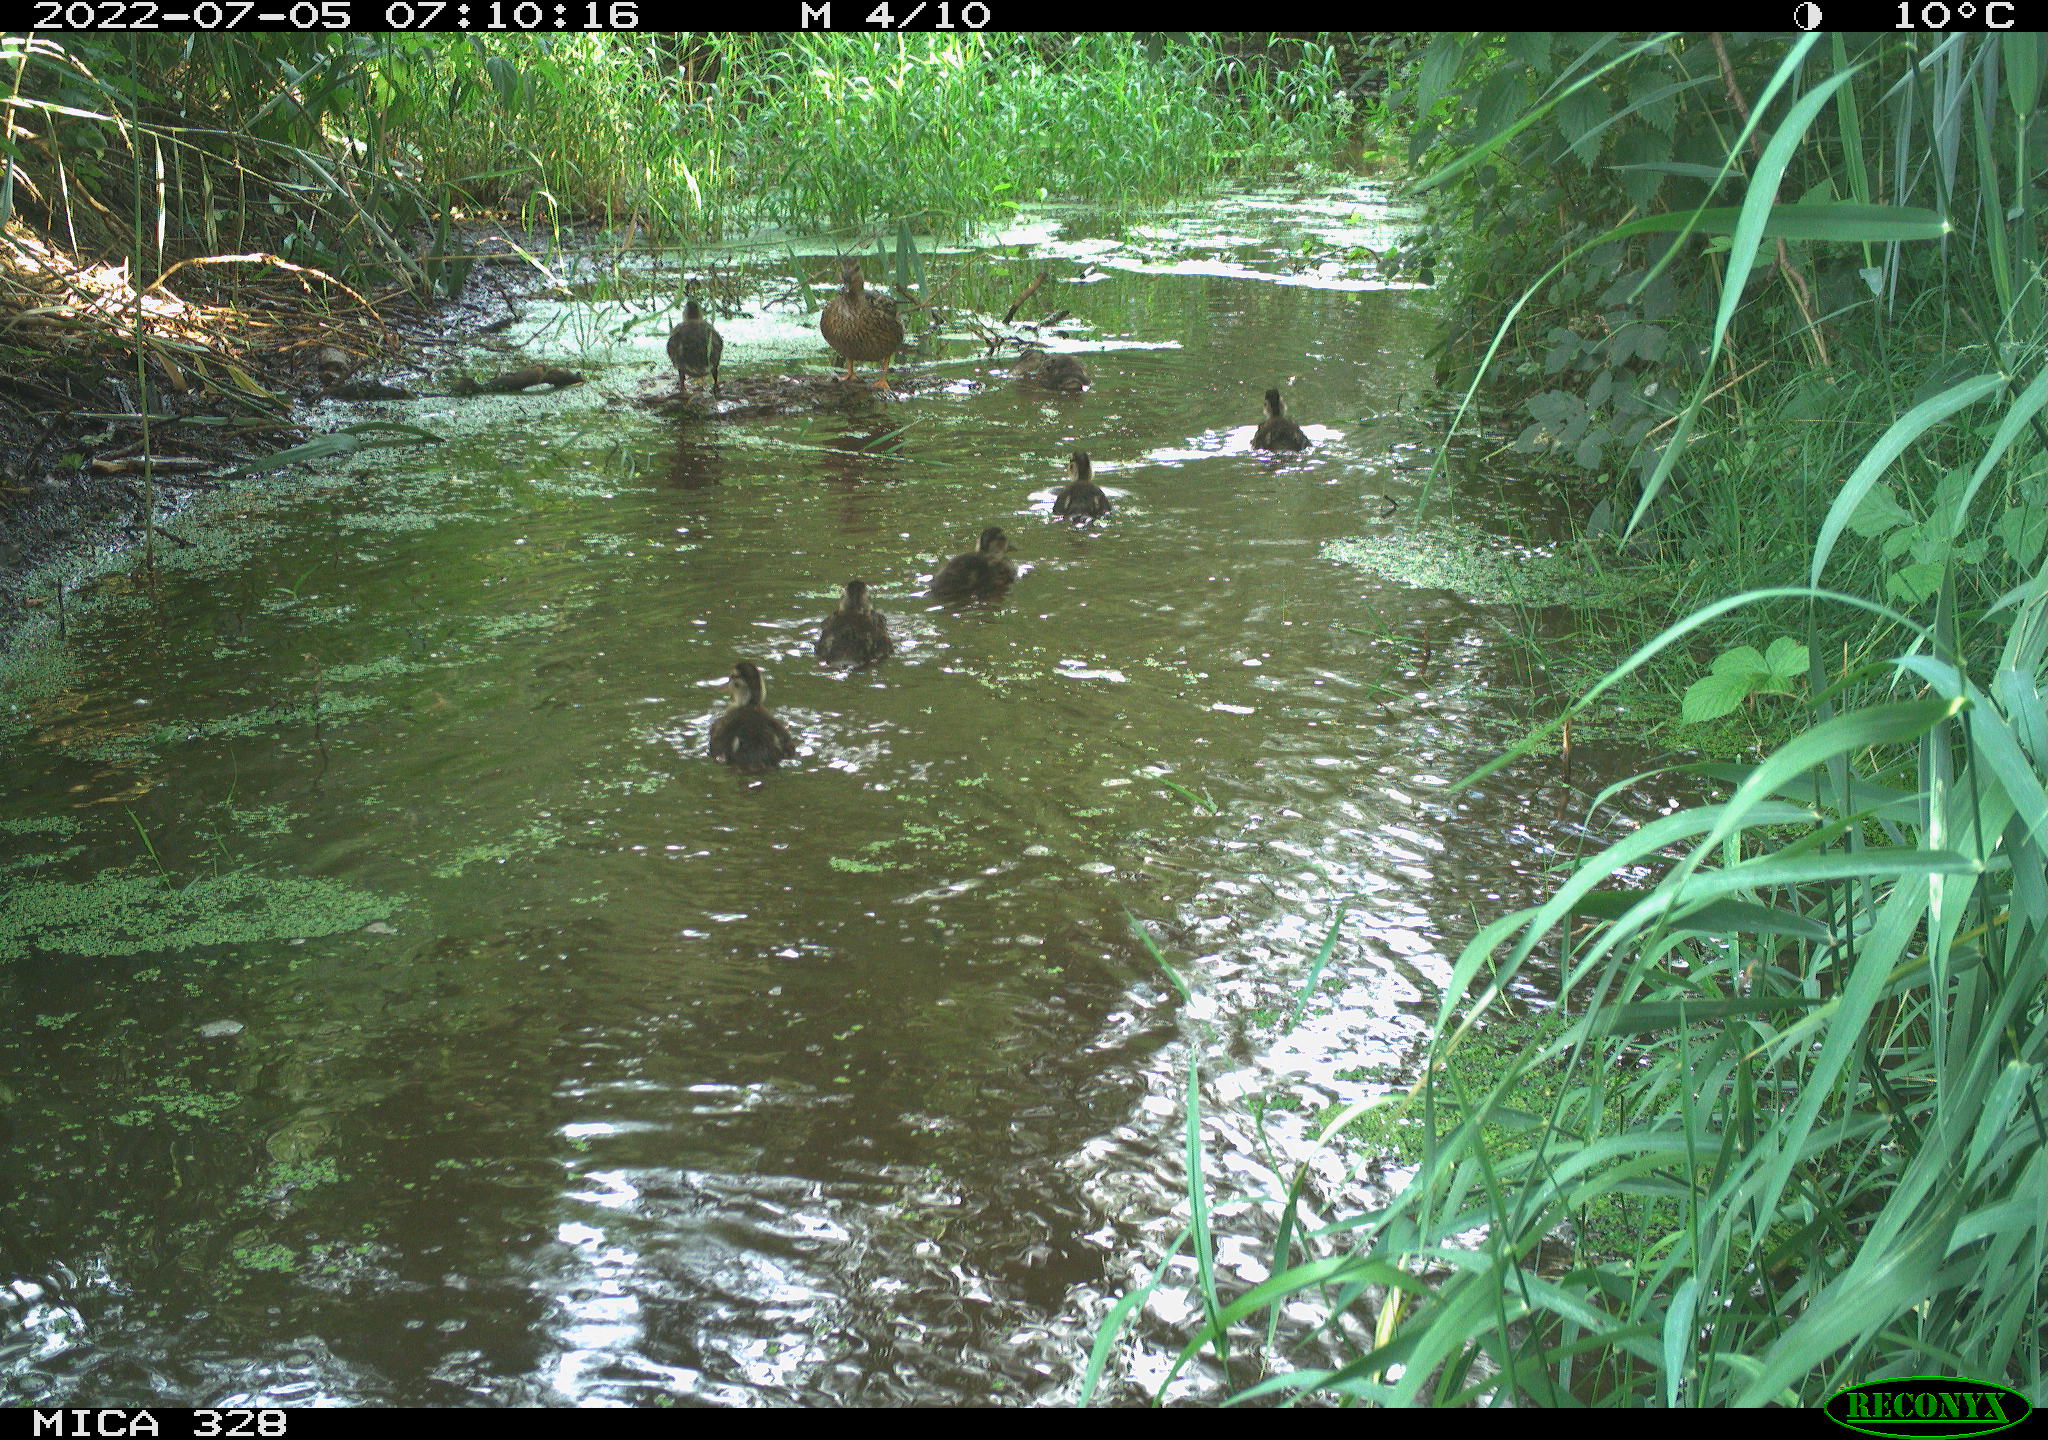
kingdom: Animalia
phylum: Chordata
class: Aves
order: Anseriformes
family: Anatidae
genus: Anas
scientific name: Anas platyrhynchos
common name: Mallard
